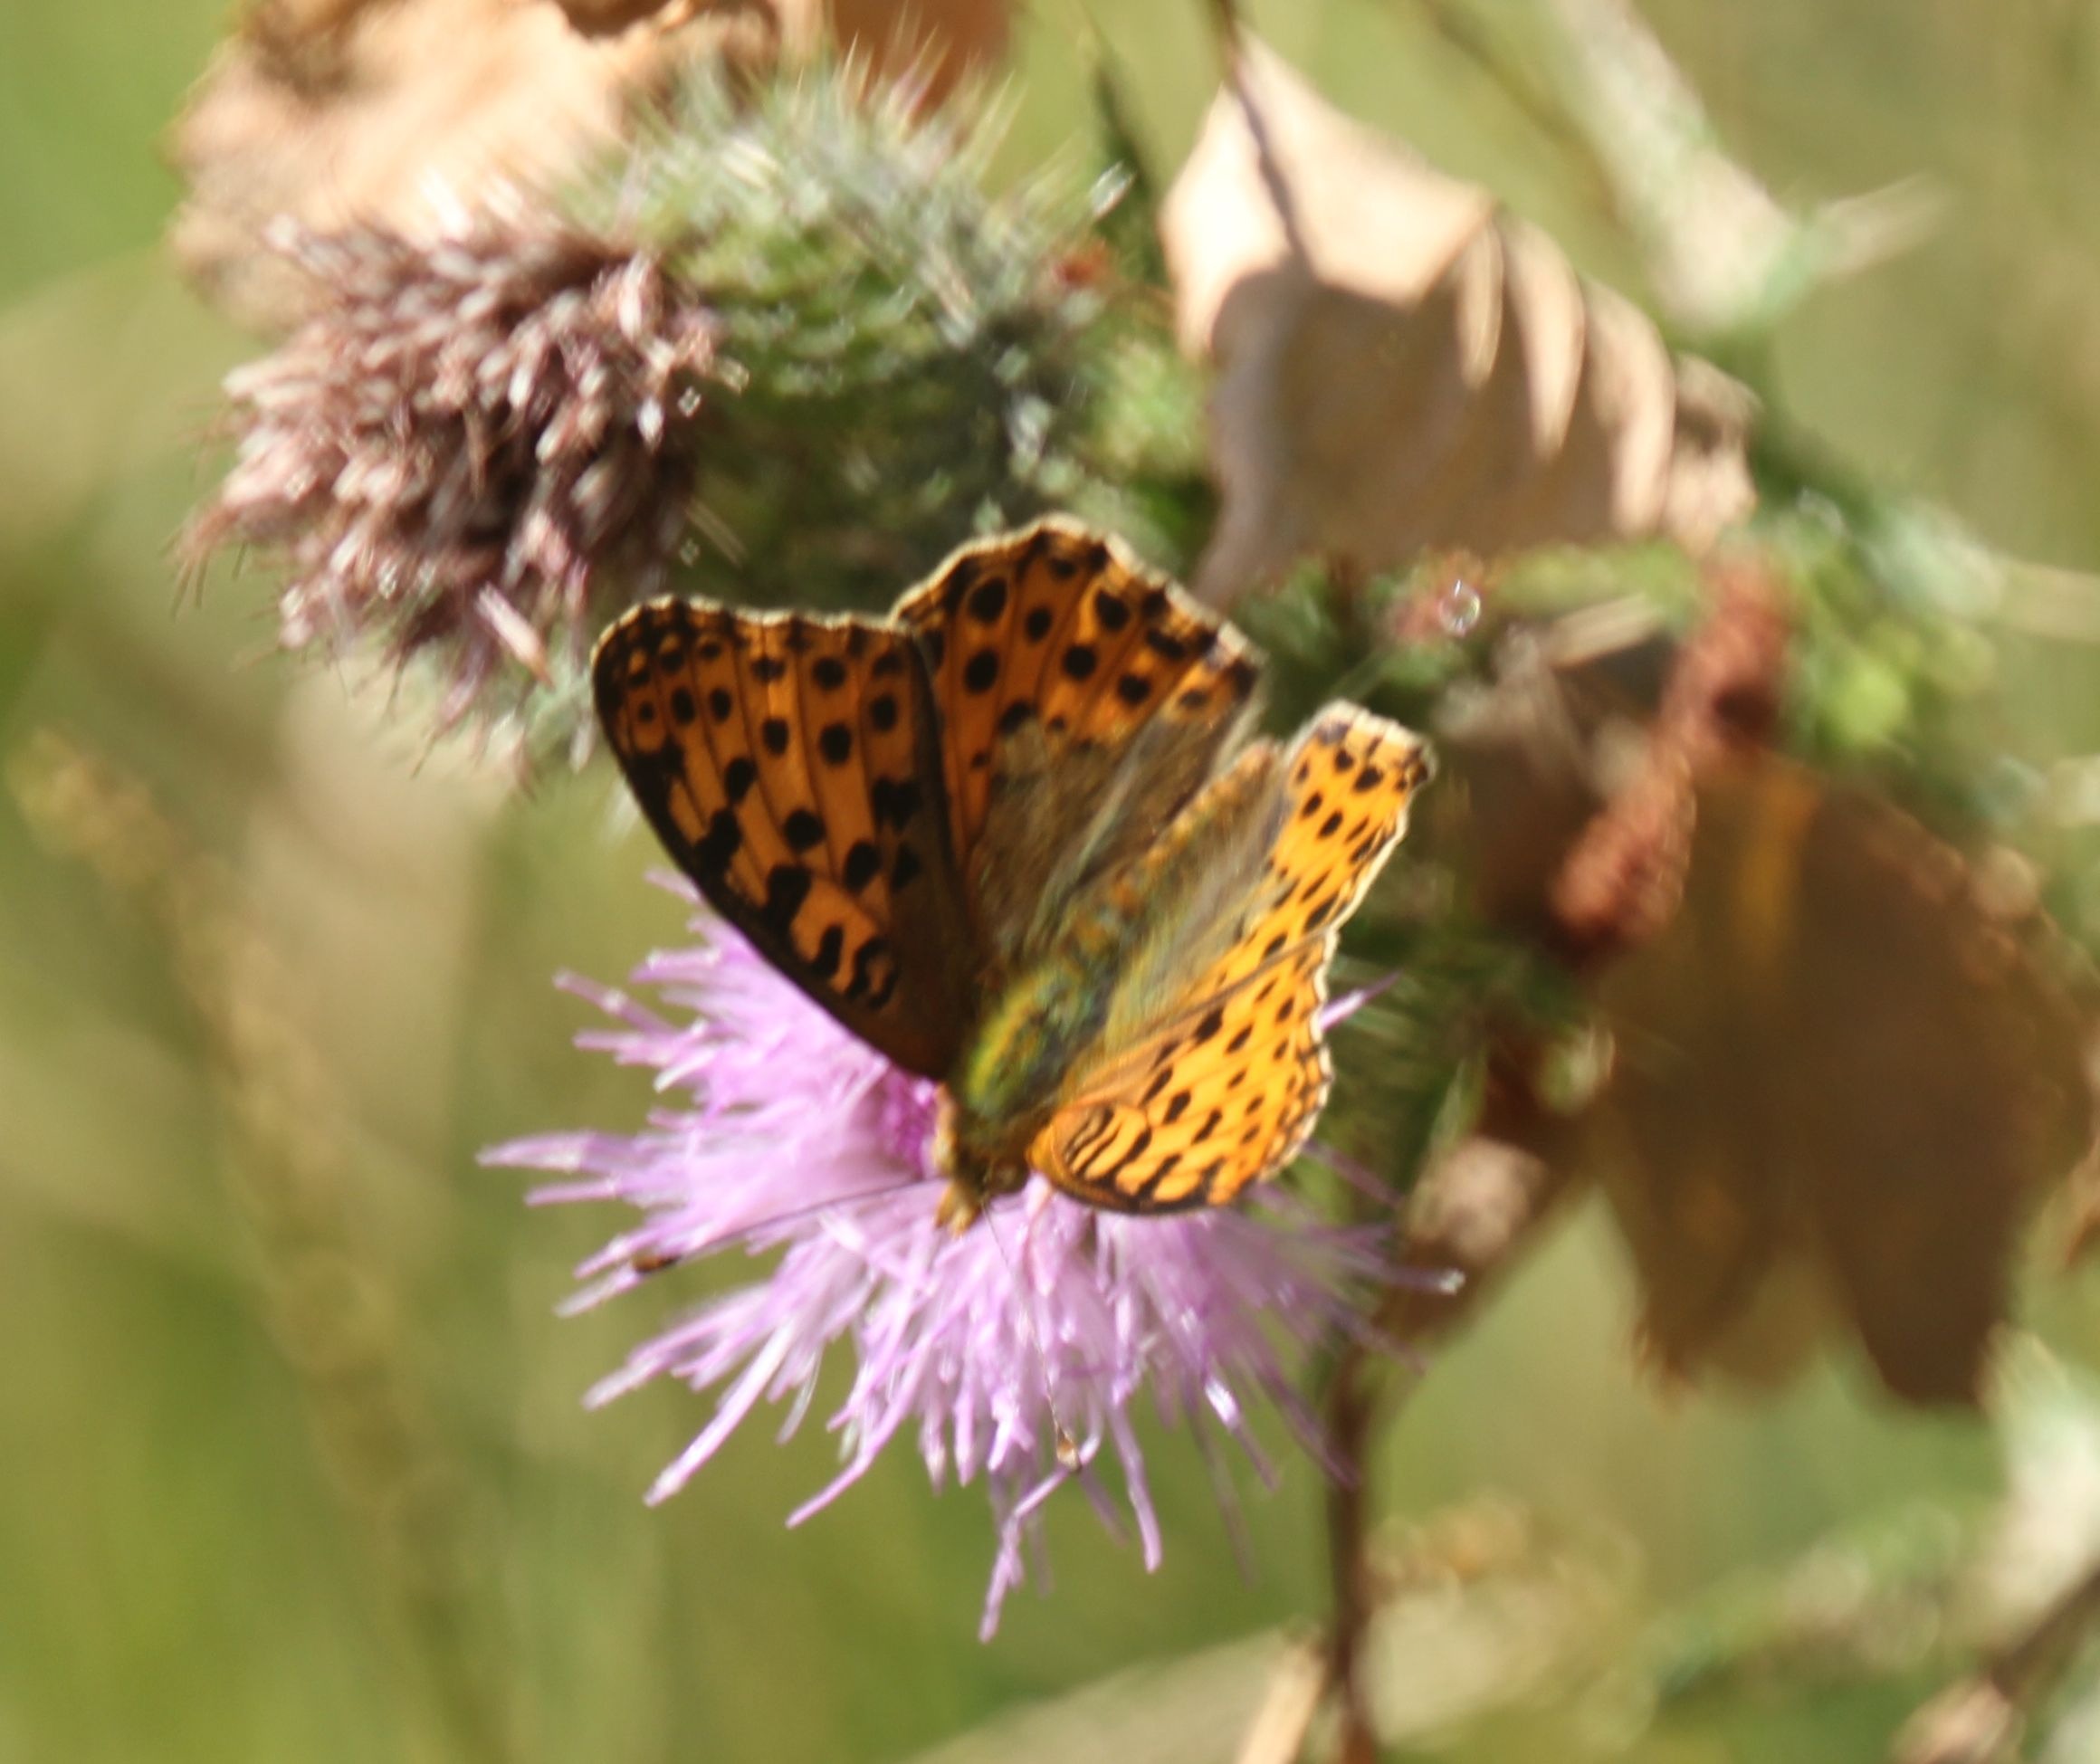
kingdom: Animalia
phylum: Arthropoda
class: Insecta
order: Lepidoptera
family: Nymphalidae
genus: Issoria
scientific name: Issoria lathonia
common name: Storplettet perlemorsommerfugl
